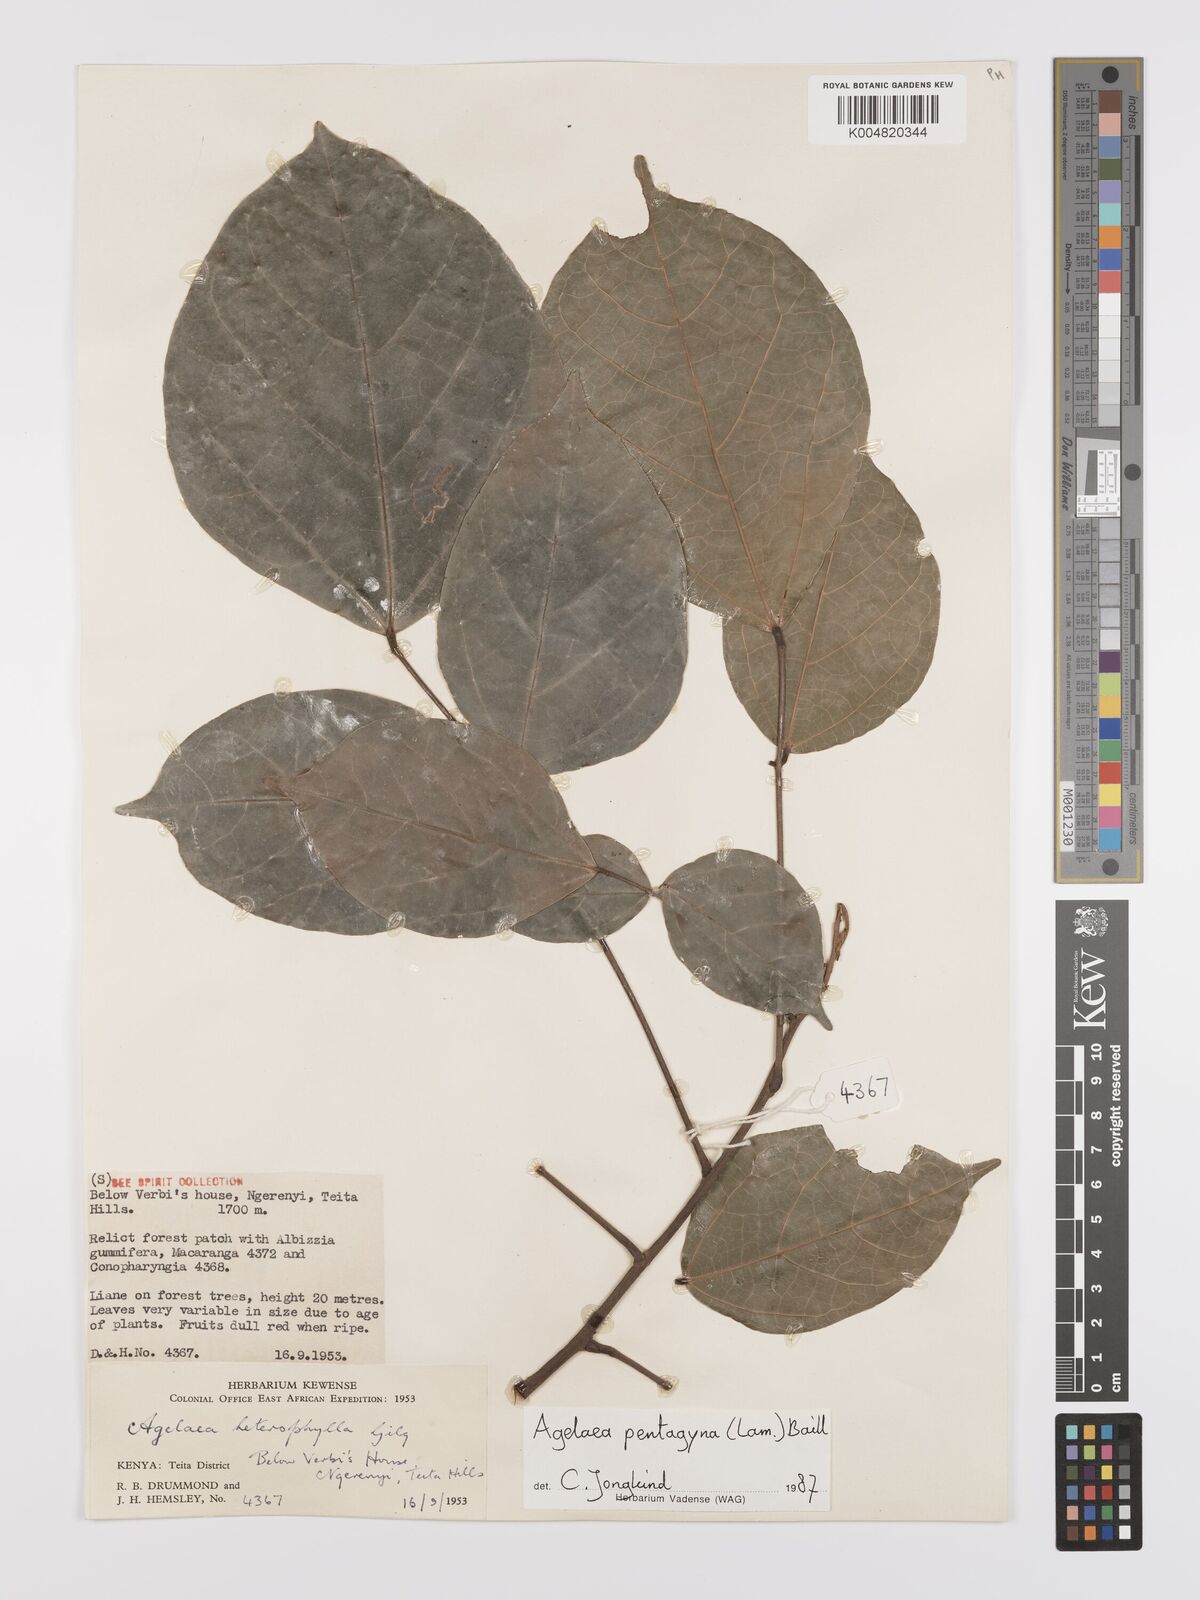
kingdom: Plantae
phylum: Tracheophyta
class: Magnoliopsida
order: Oxalidales
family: Connaraceae
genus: Agelaea
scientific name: Agelaea pentagyna
